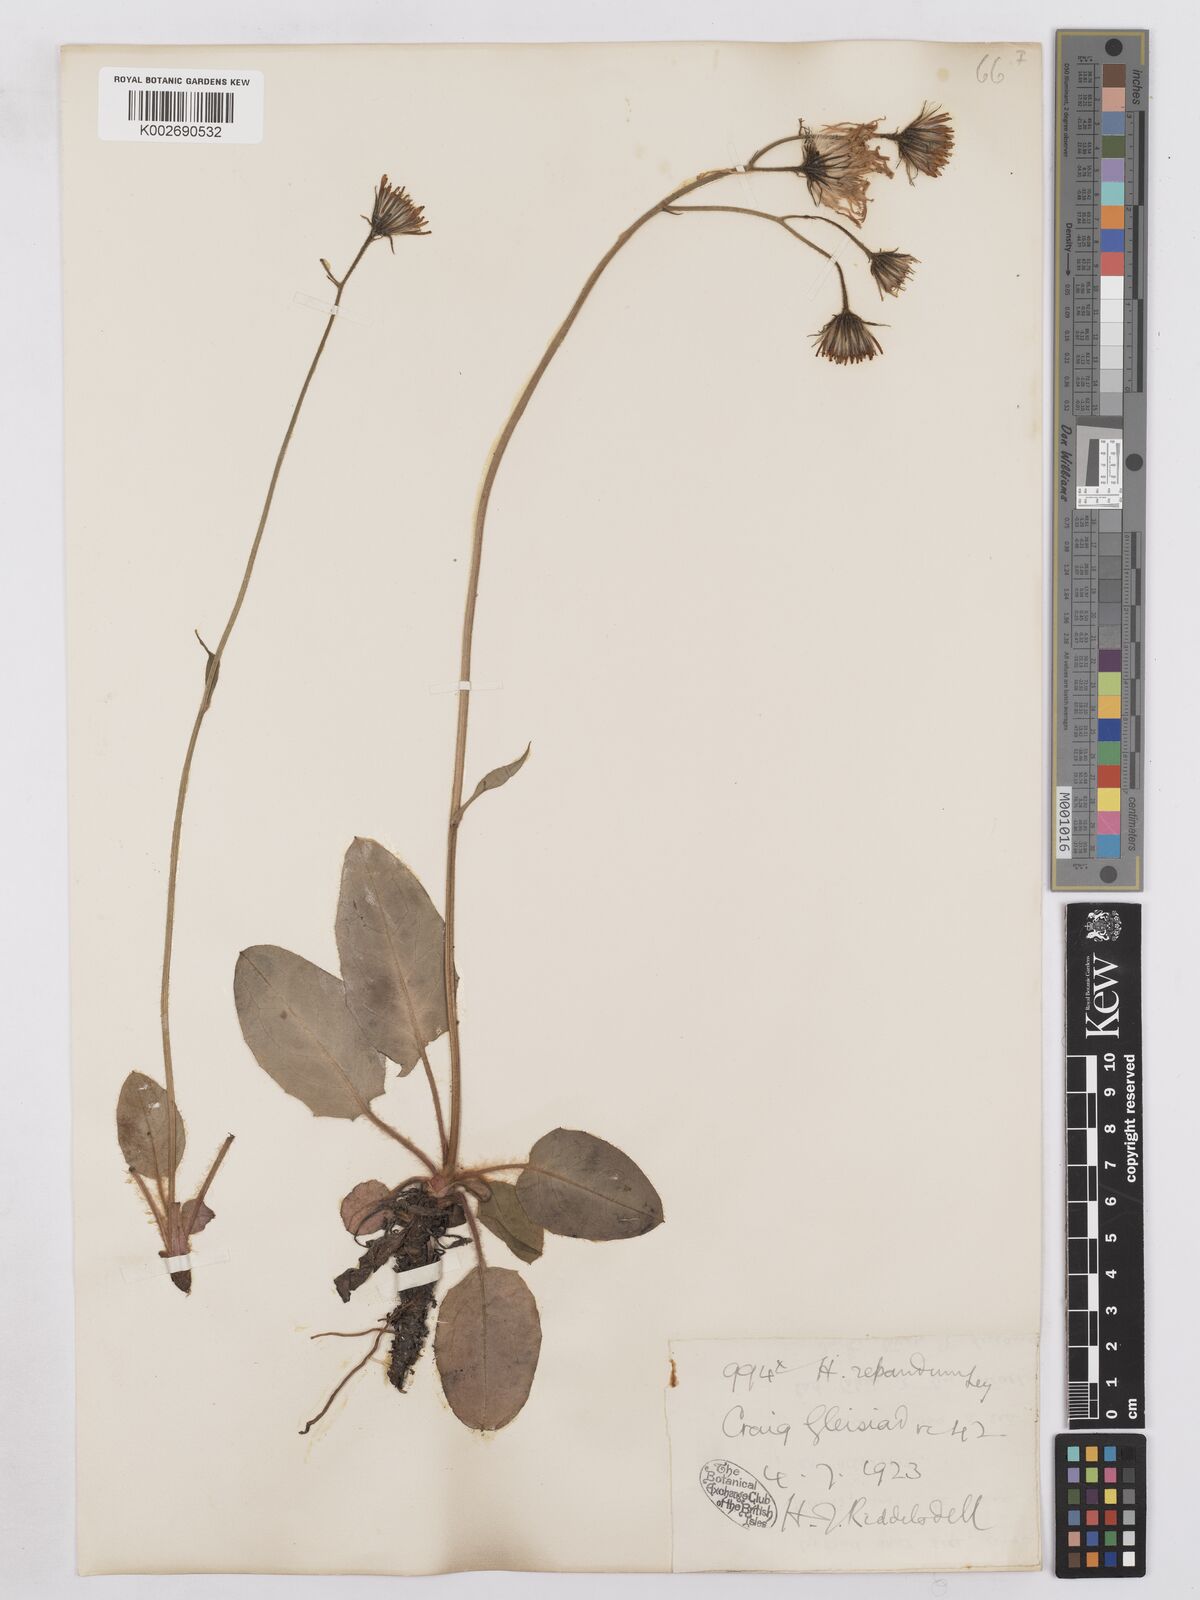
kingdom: Plantae
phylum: Tracheophyta
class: Magnoliopsida
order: Asterales
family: Asteraceae
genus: Hieracium
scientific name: Hieracium repandulare
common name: Repand-leaved hawkweed
